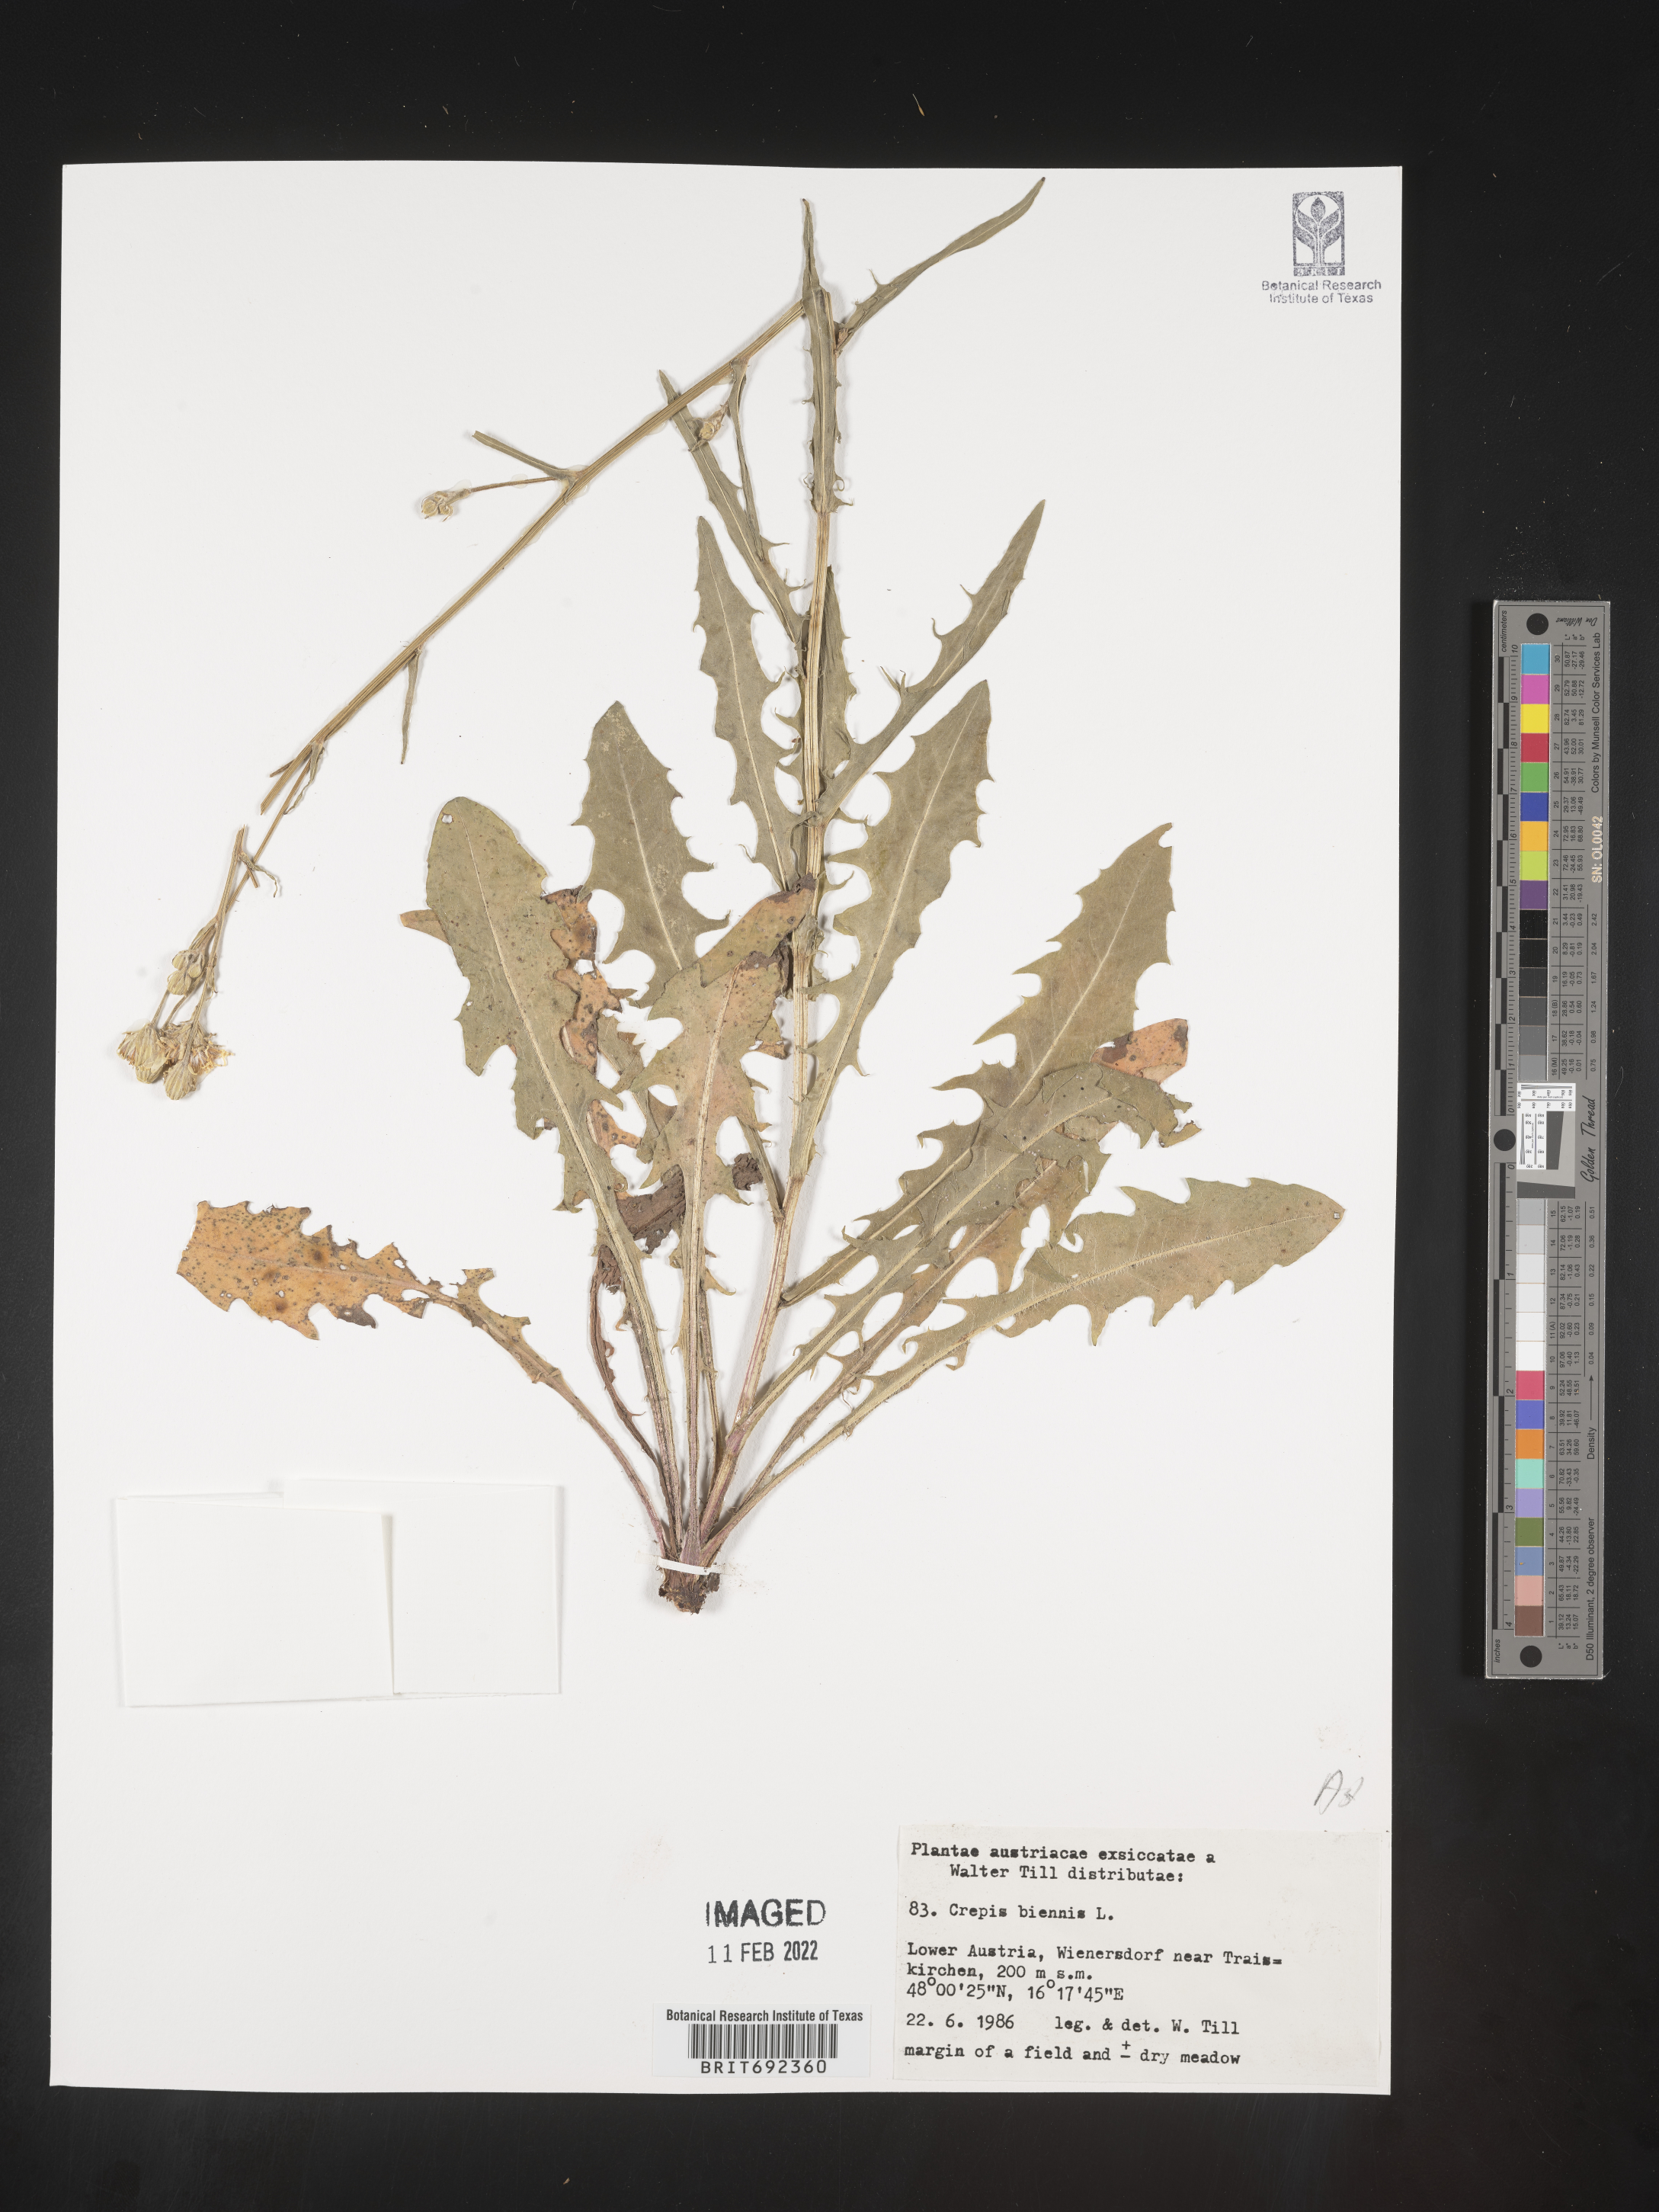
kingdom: Plantae
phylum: Tracheophyta
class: Magnoliopsida
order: Asterales
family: Asteraceae
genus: Crepis
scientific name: Crepis
